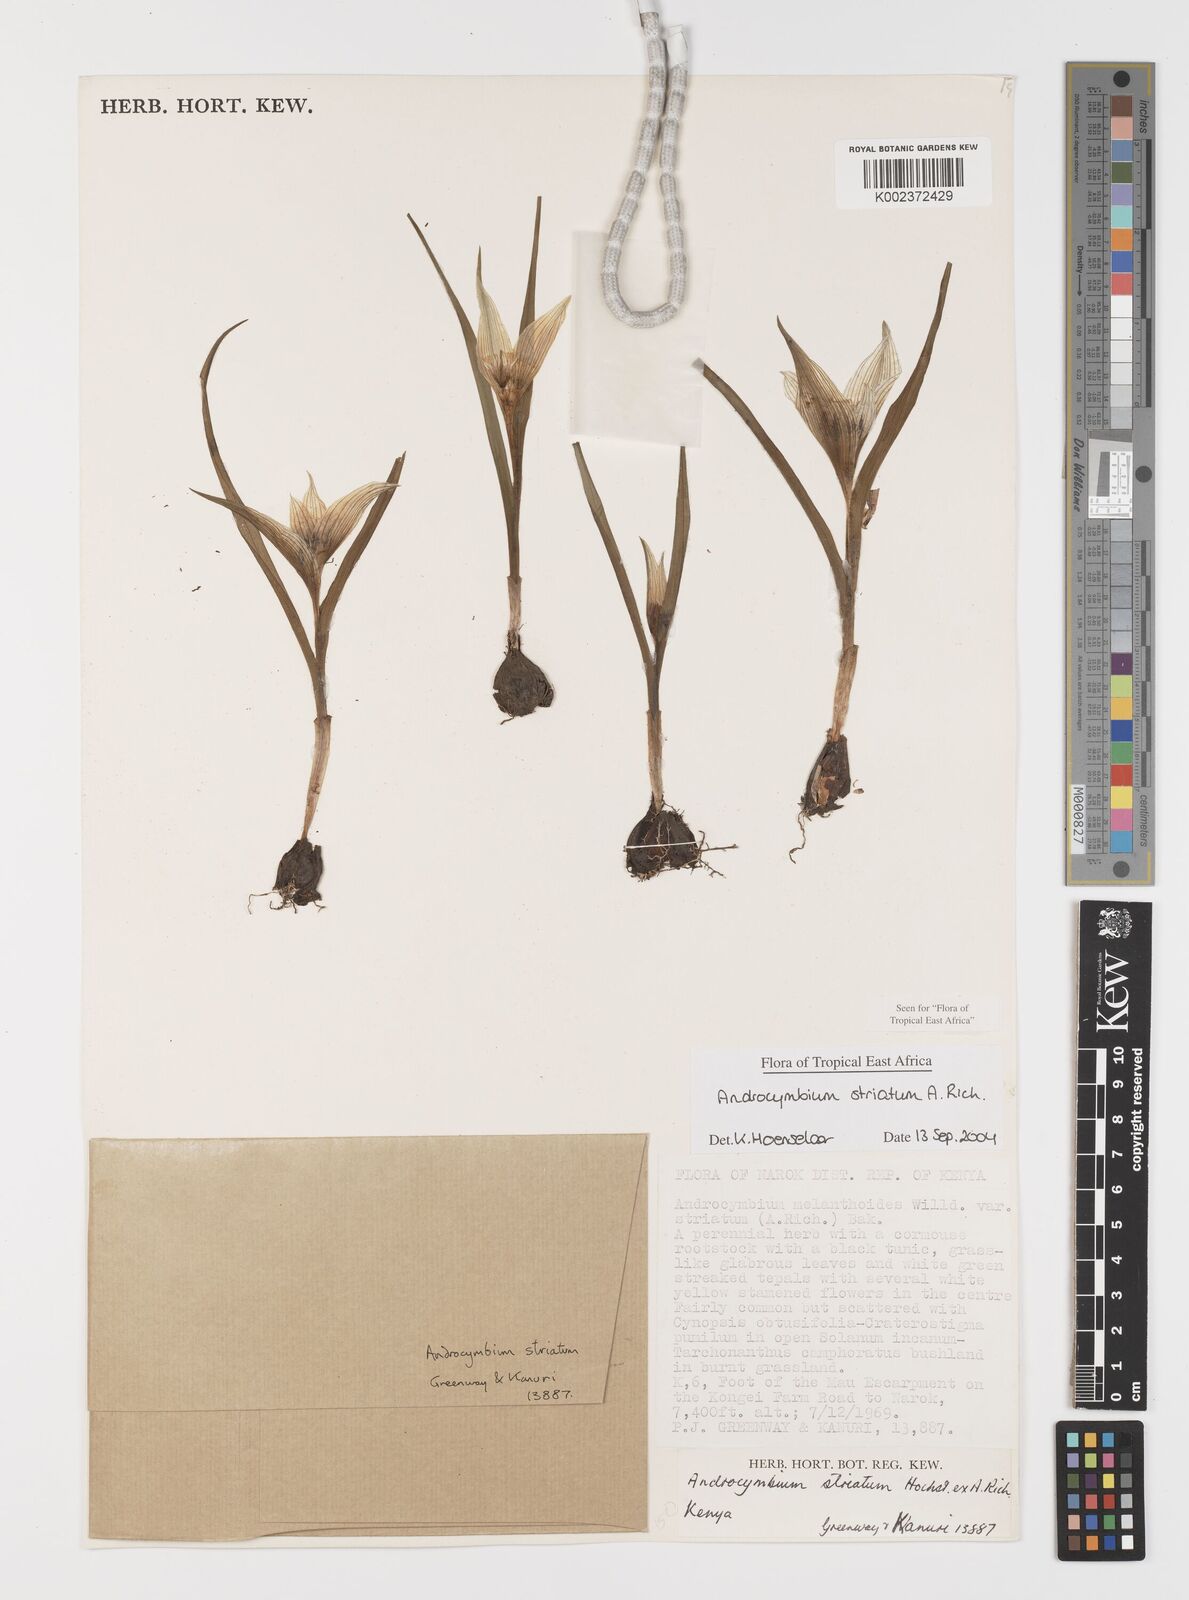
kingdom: Plantae
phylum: Tracheophyta
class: Liliopsida
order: Liliales
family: Colchicaceae
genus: Colchicum
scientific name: Colchicum striatum
